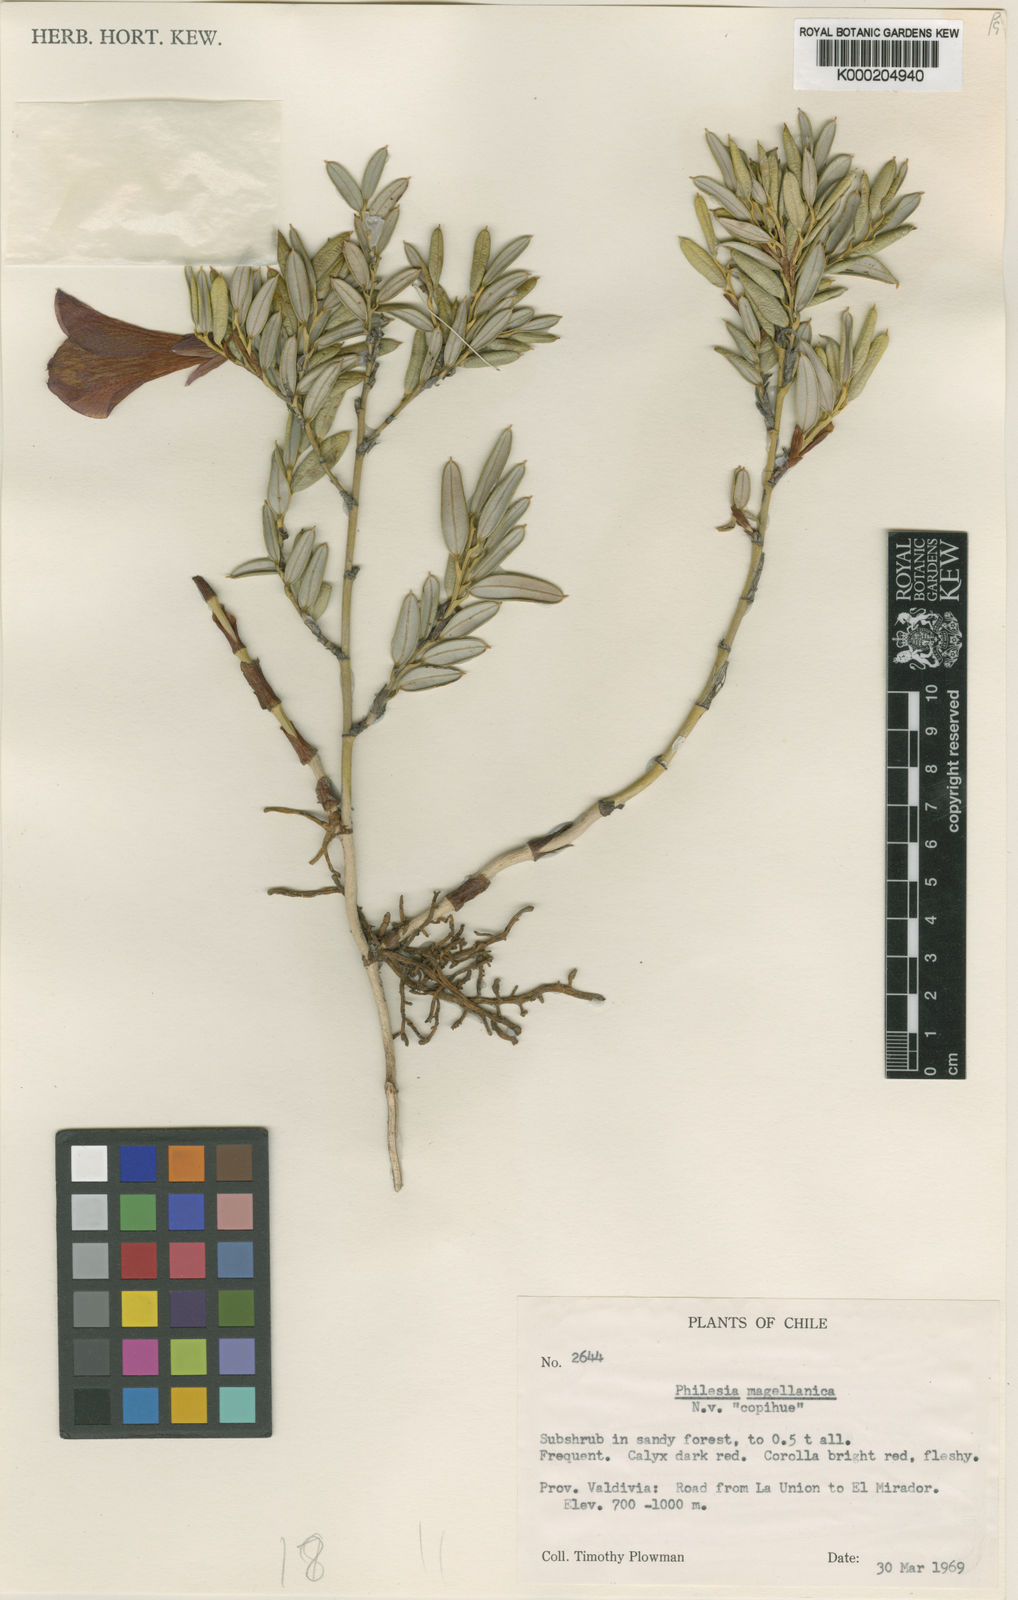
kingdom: Plantae
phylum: Tracheophyta
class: Liliopsida
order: Liliales
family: Philesiaceae
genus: Philesia
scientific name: Philesia magellanica
